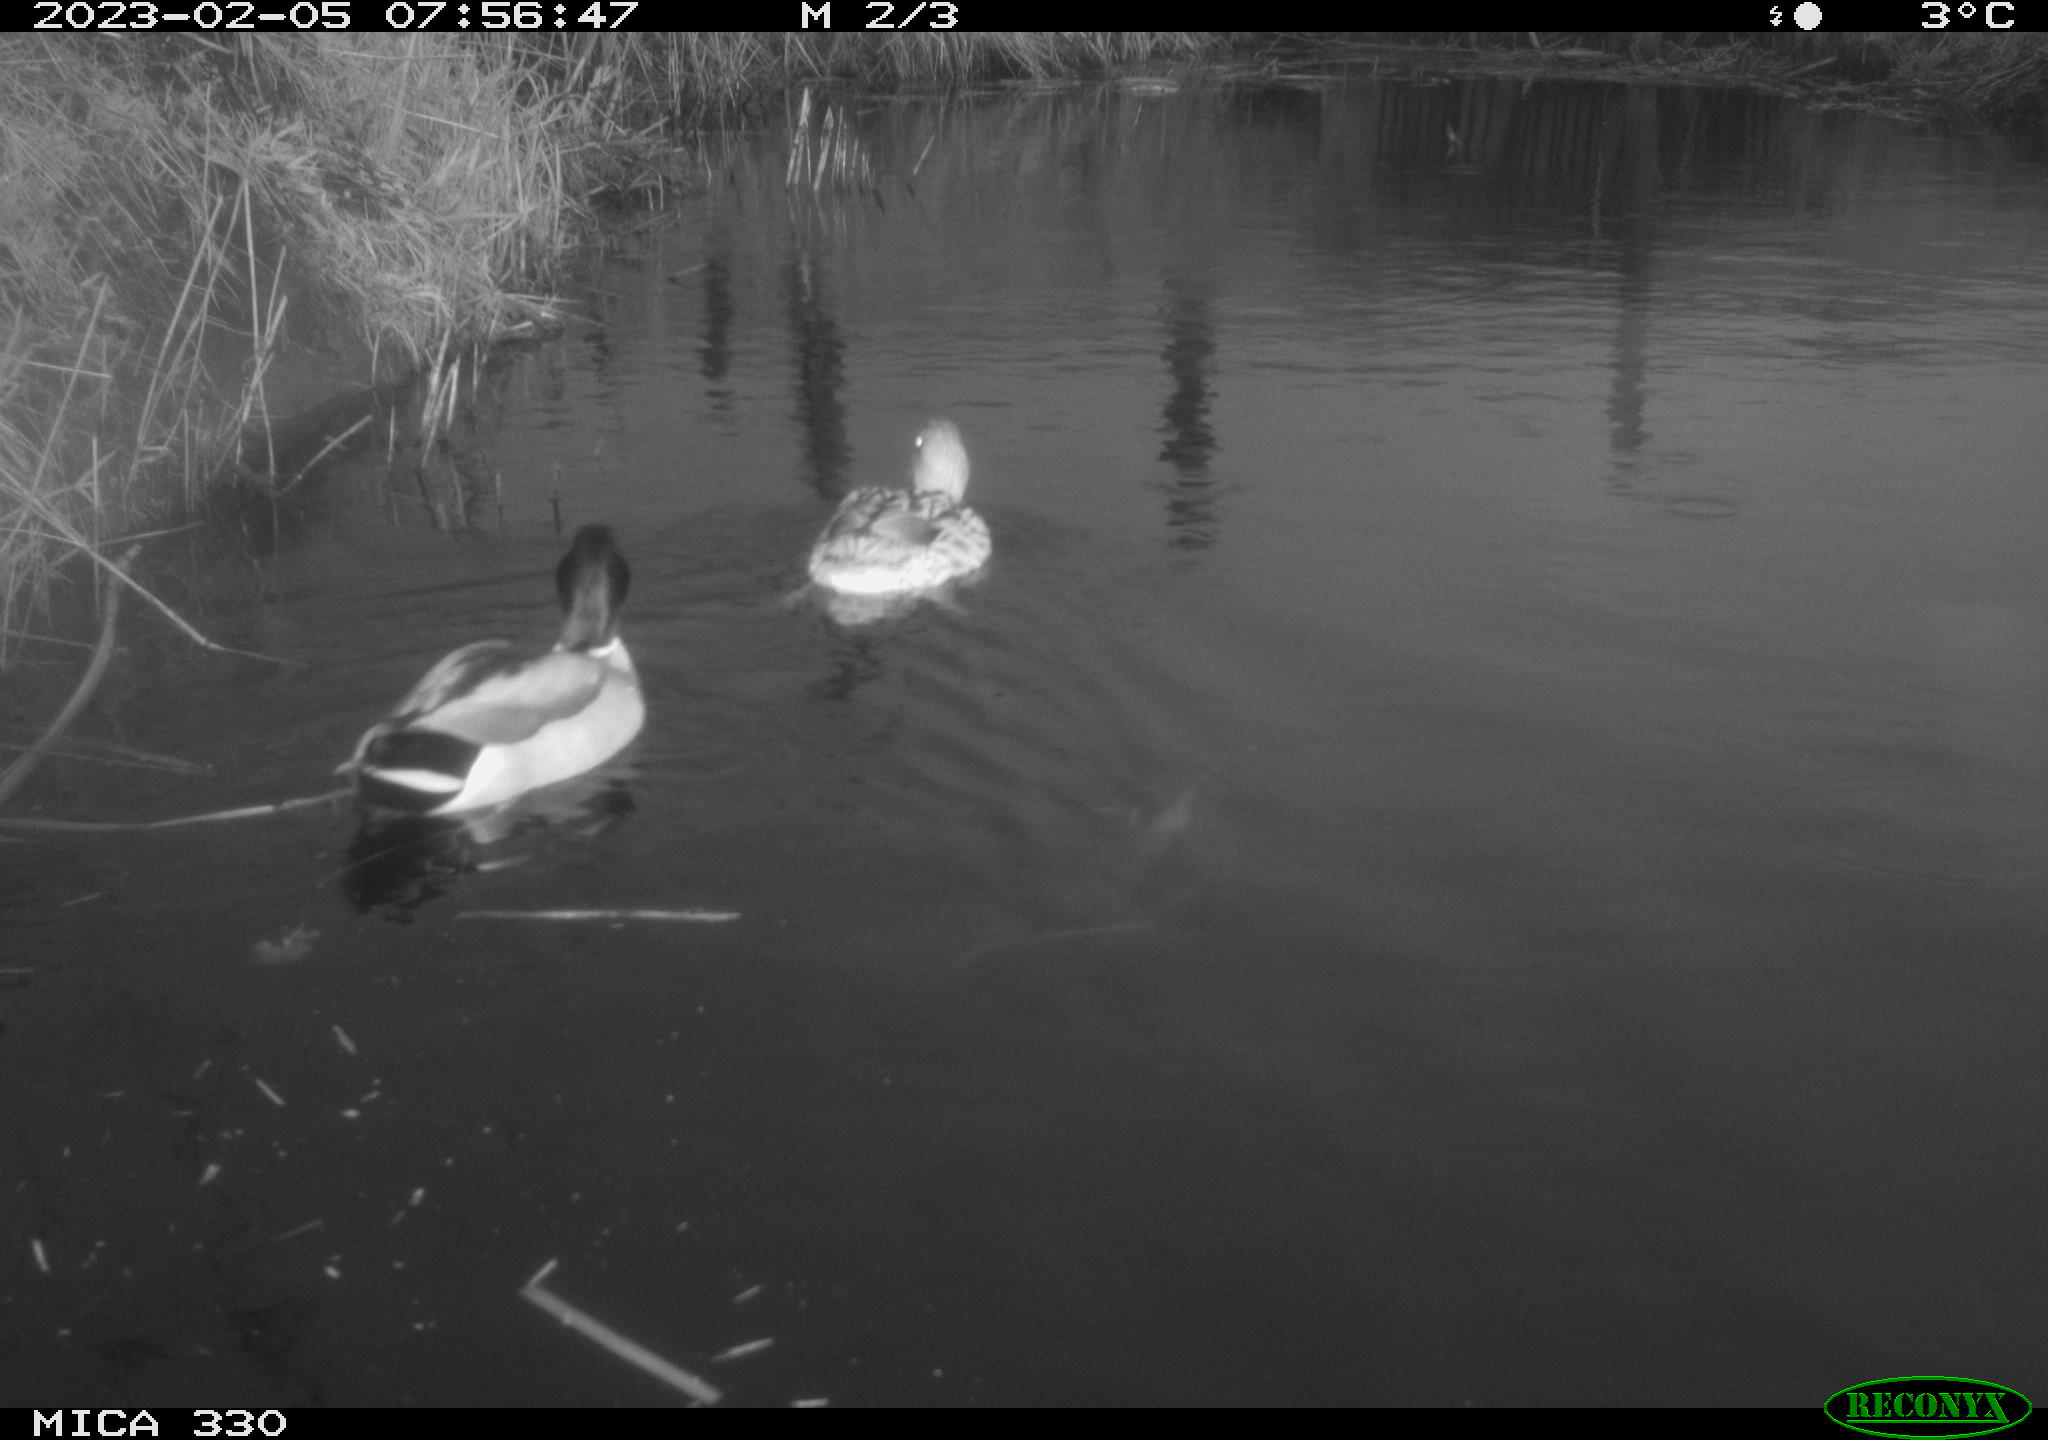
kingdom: Animalia
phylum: Chordata
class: Aves
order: Anseriformes
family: Anatidae
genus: Anas
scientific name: Anas
